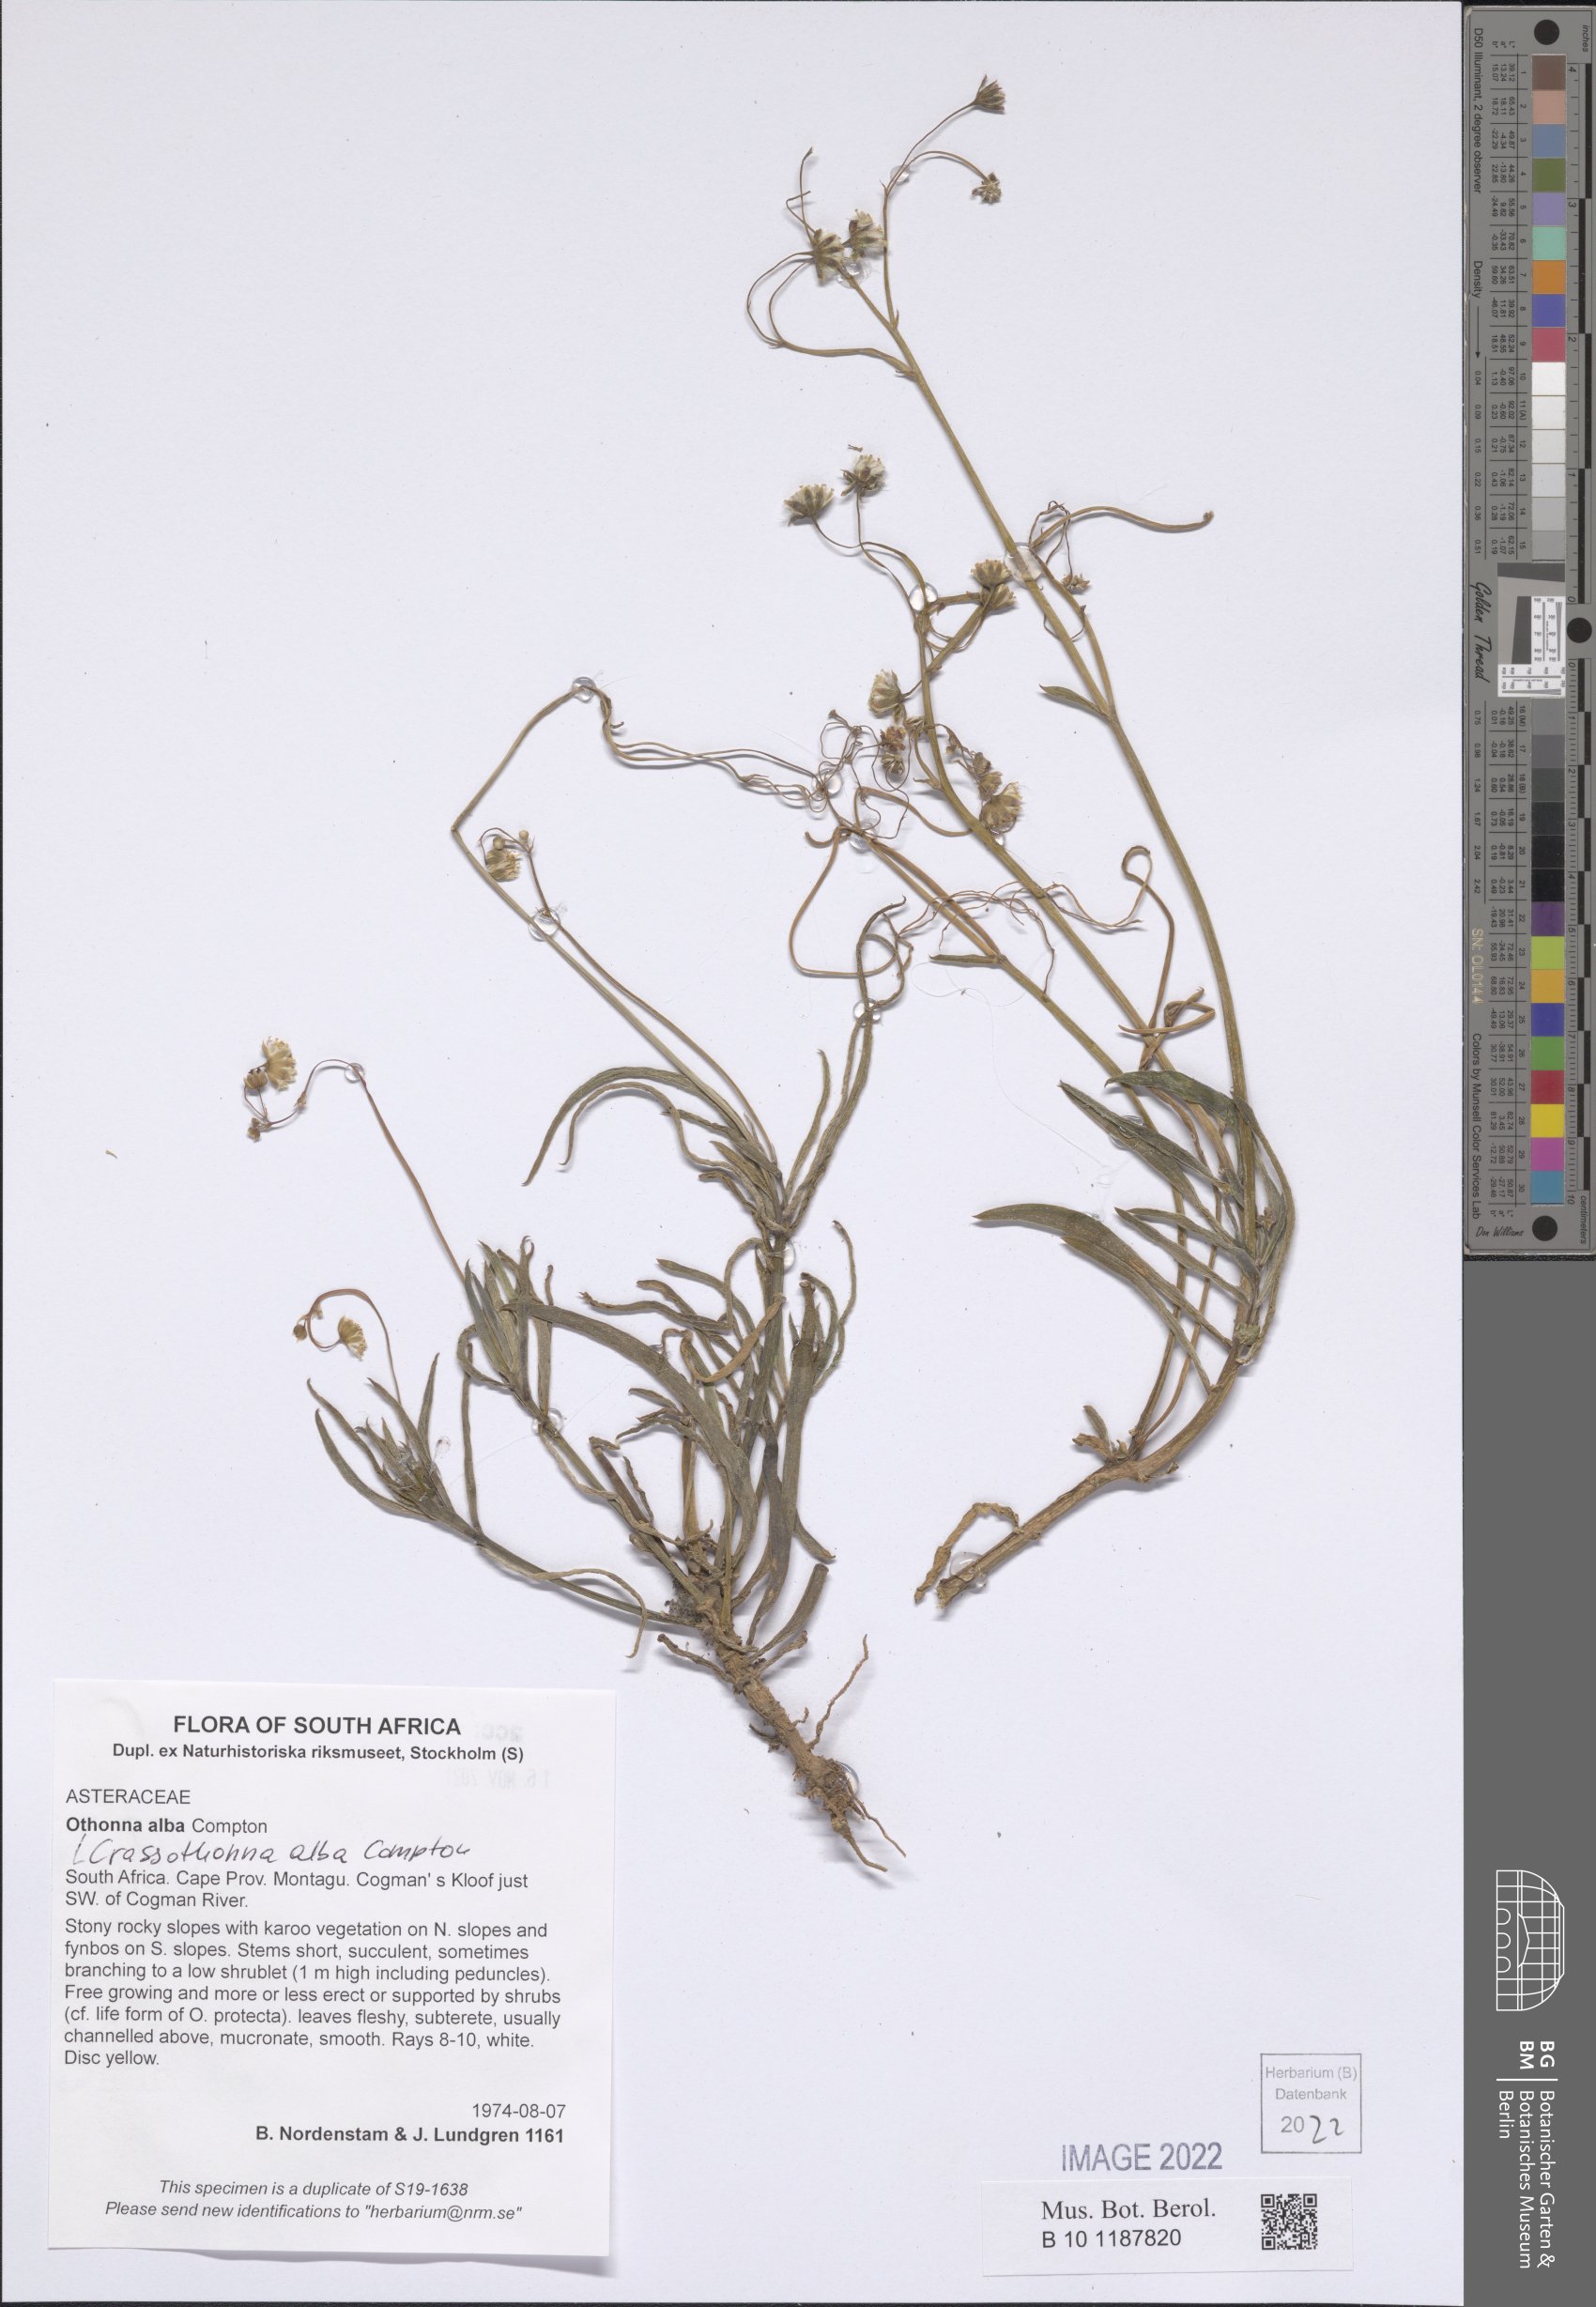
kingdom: Plantae
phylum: Tracheophyta
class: Magnoliopsida
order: Asterales
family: Asteraceae
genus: Crassothonna
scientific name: Crassothonna alba
